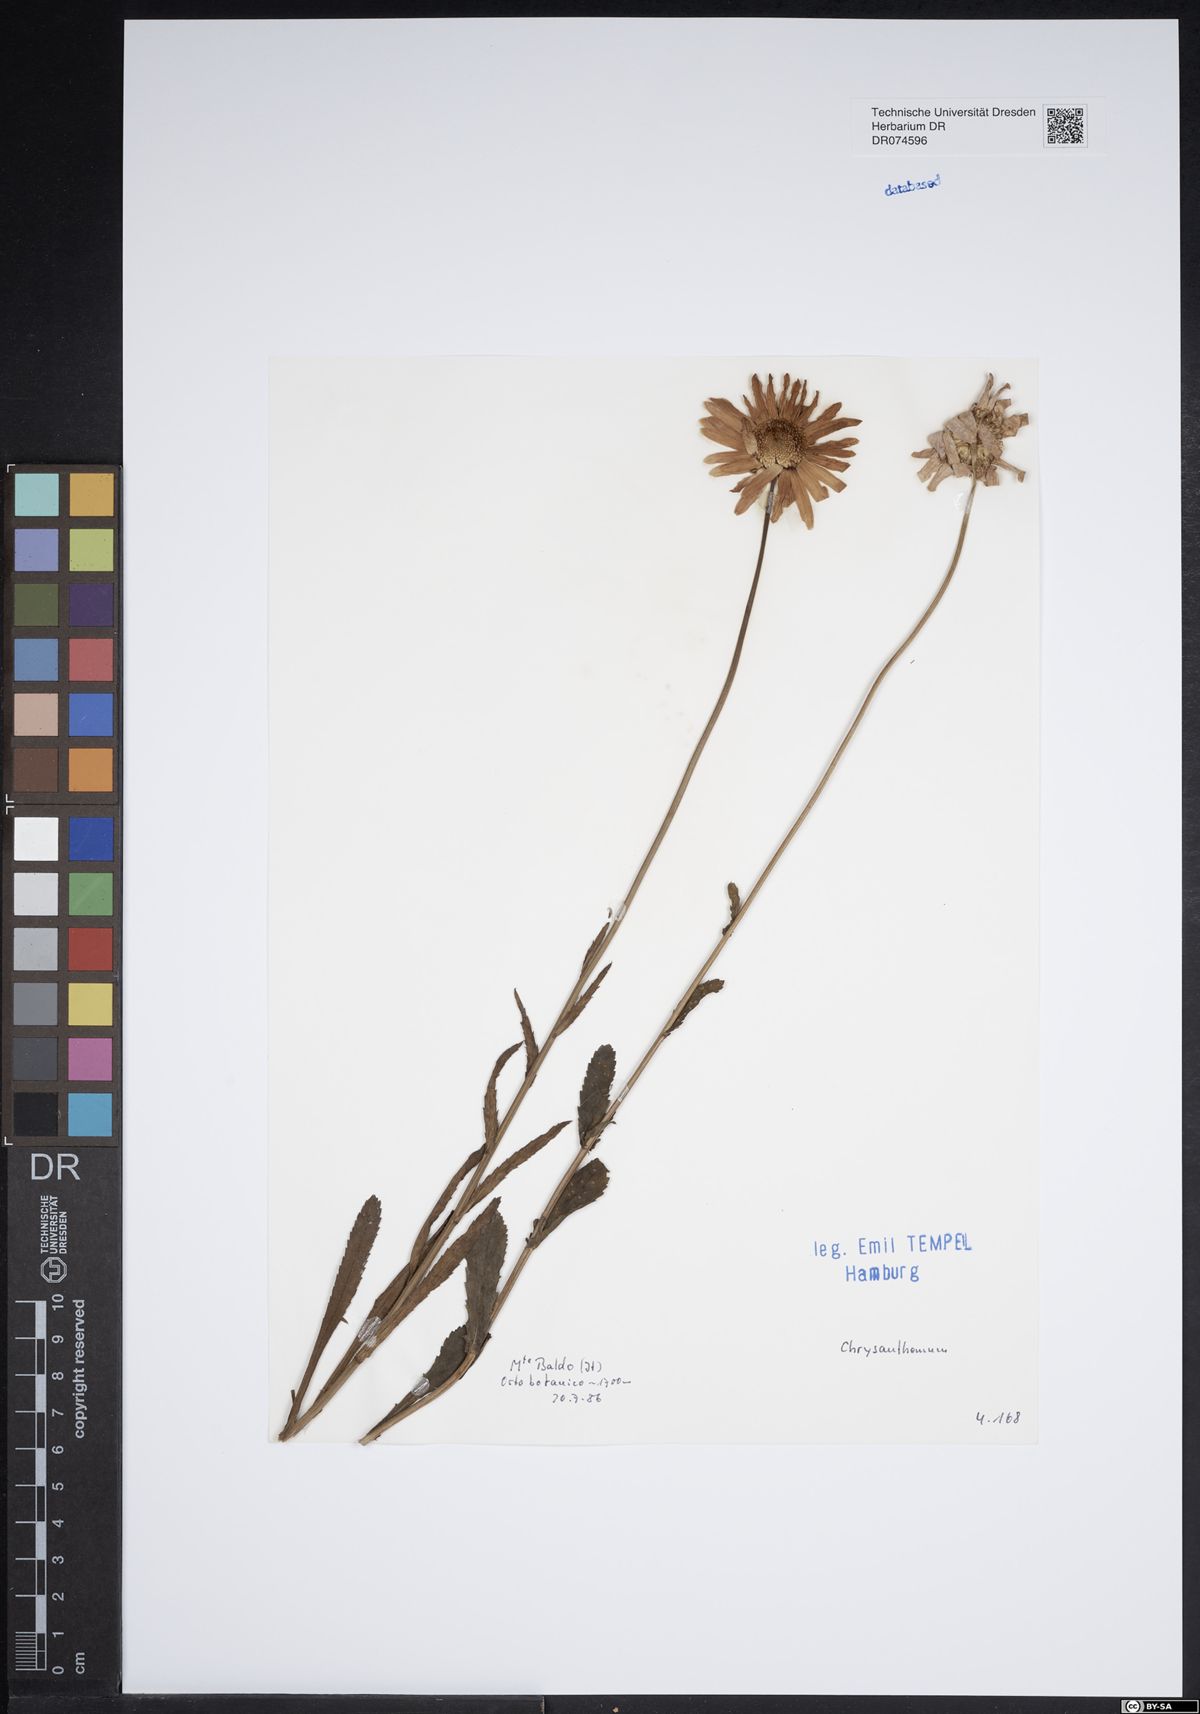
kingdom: Plantae
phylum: Tracheophyta
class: Magnoliopsida
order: Asterales
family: Asteraceae
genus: Chrysanthemum
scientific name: Chrysanthemum
